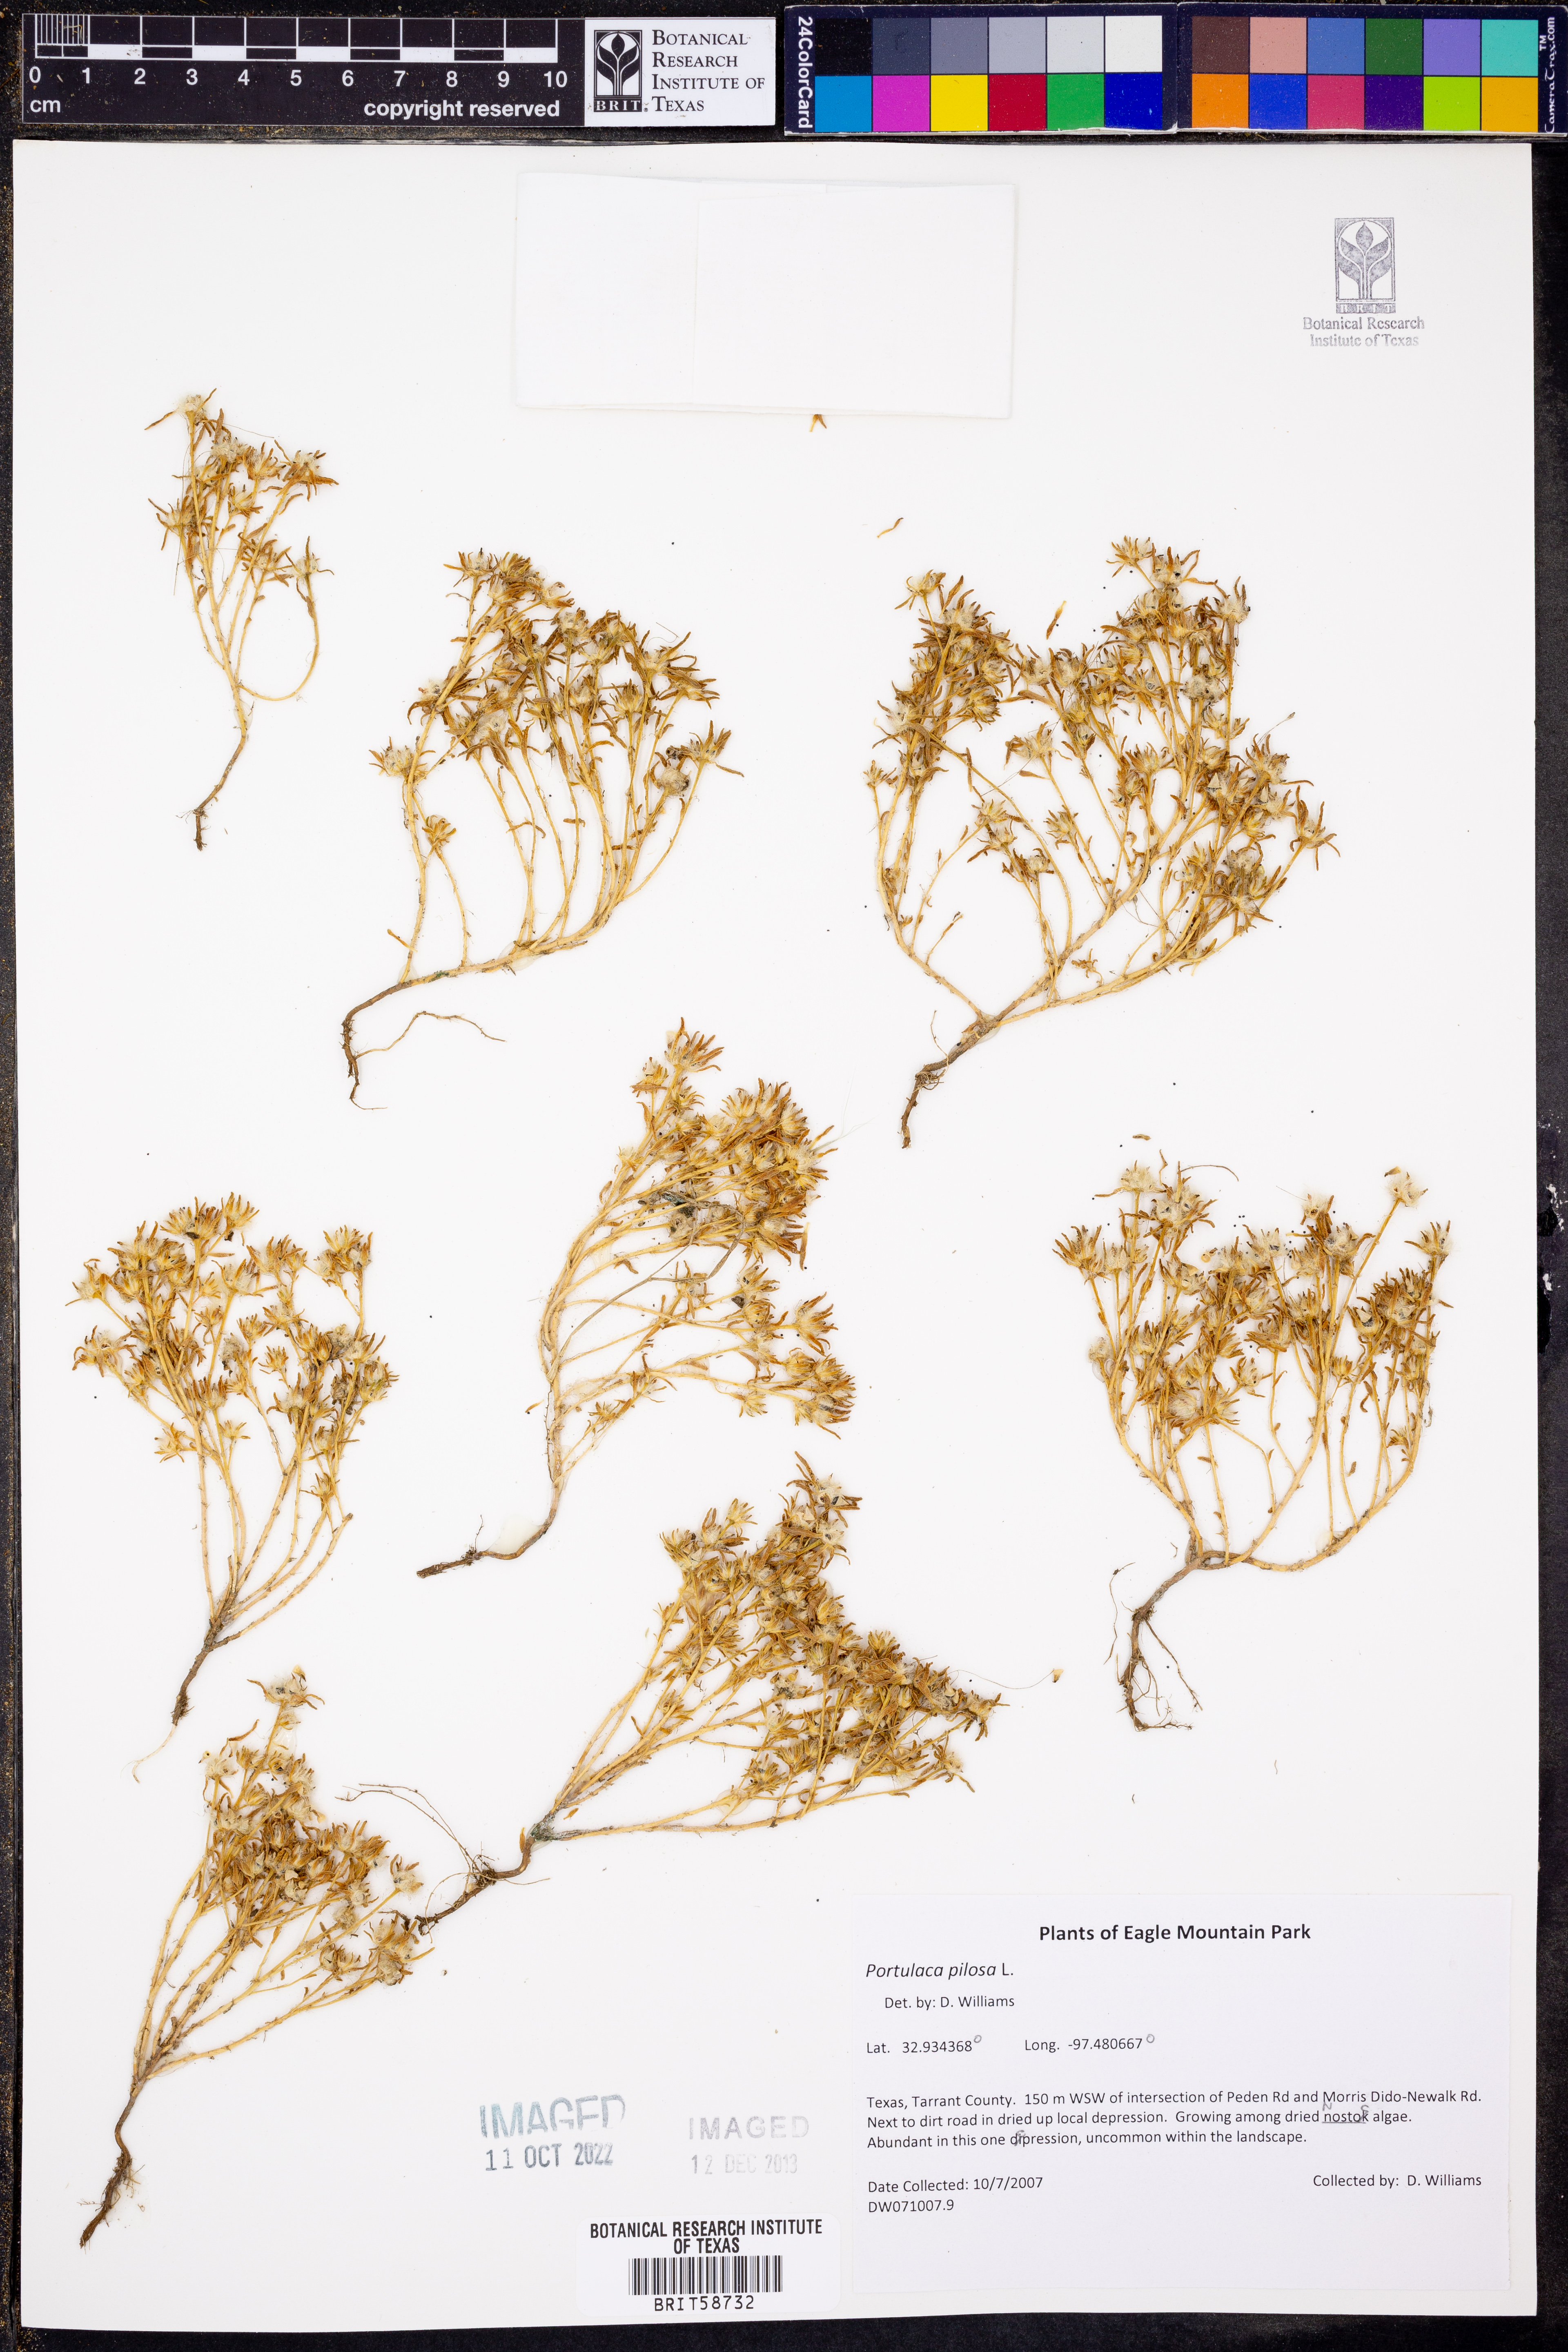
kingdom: Plantae
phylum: Tracheophyta
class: Magnoliopsida
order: Caryophyllales
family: Portulacaceae
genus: Portulaca
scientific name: Portulaca pilosa
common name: Kiss me quick
